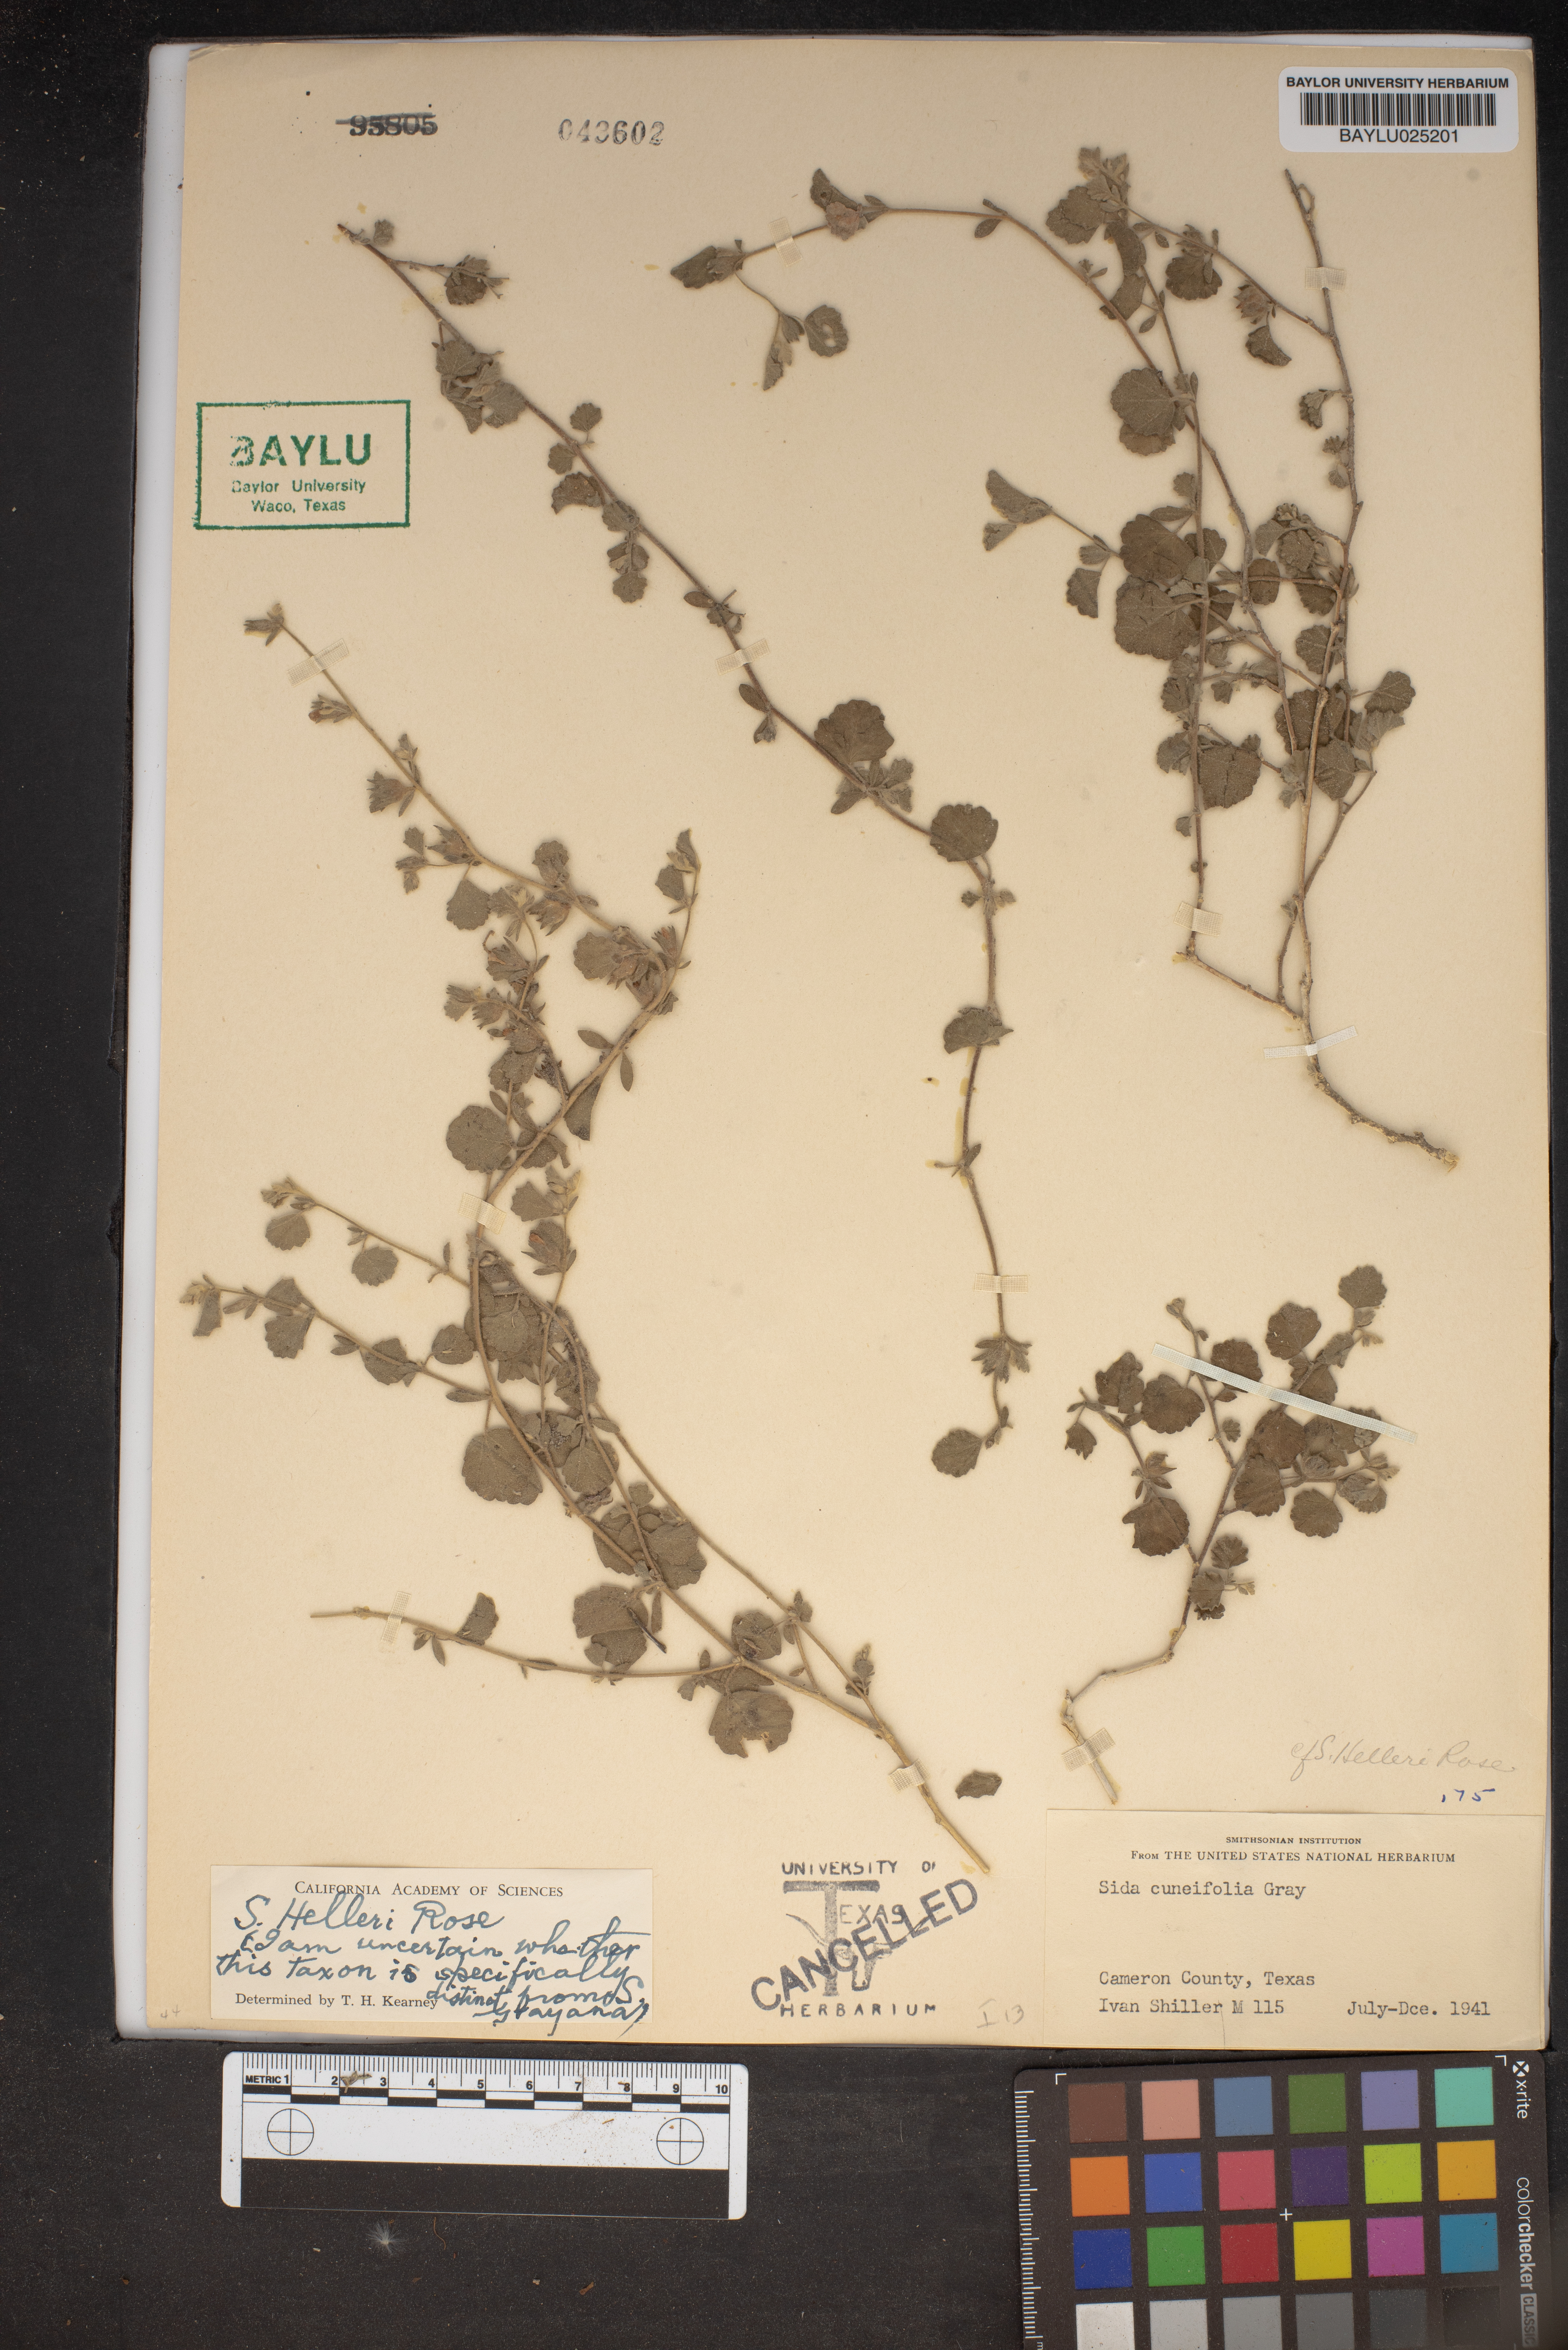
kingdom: Plantae
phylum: Tracheophyta
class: Magnoliopsida
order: Malvales
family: Malvaceae
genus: Billieturnera
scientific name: Billieturnera helleri
